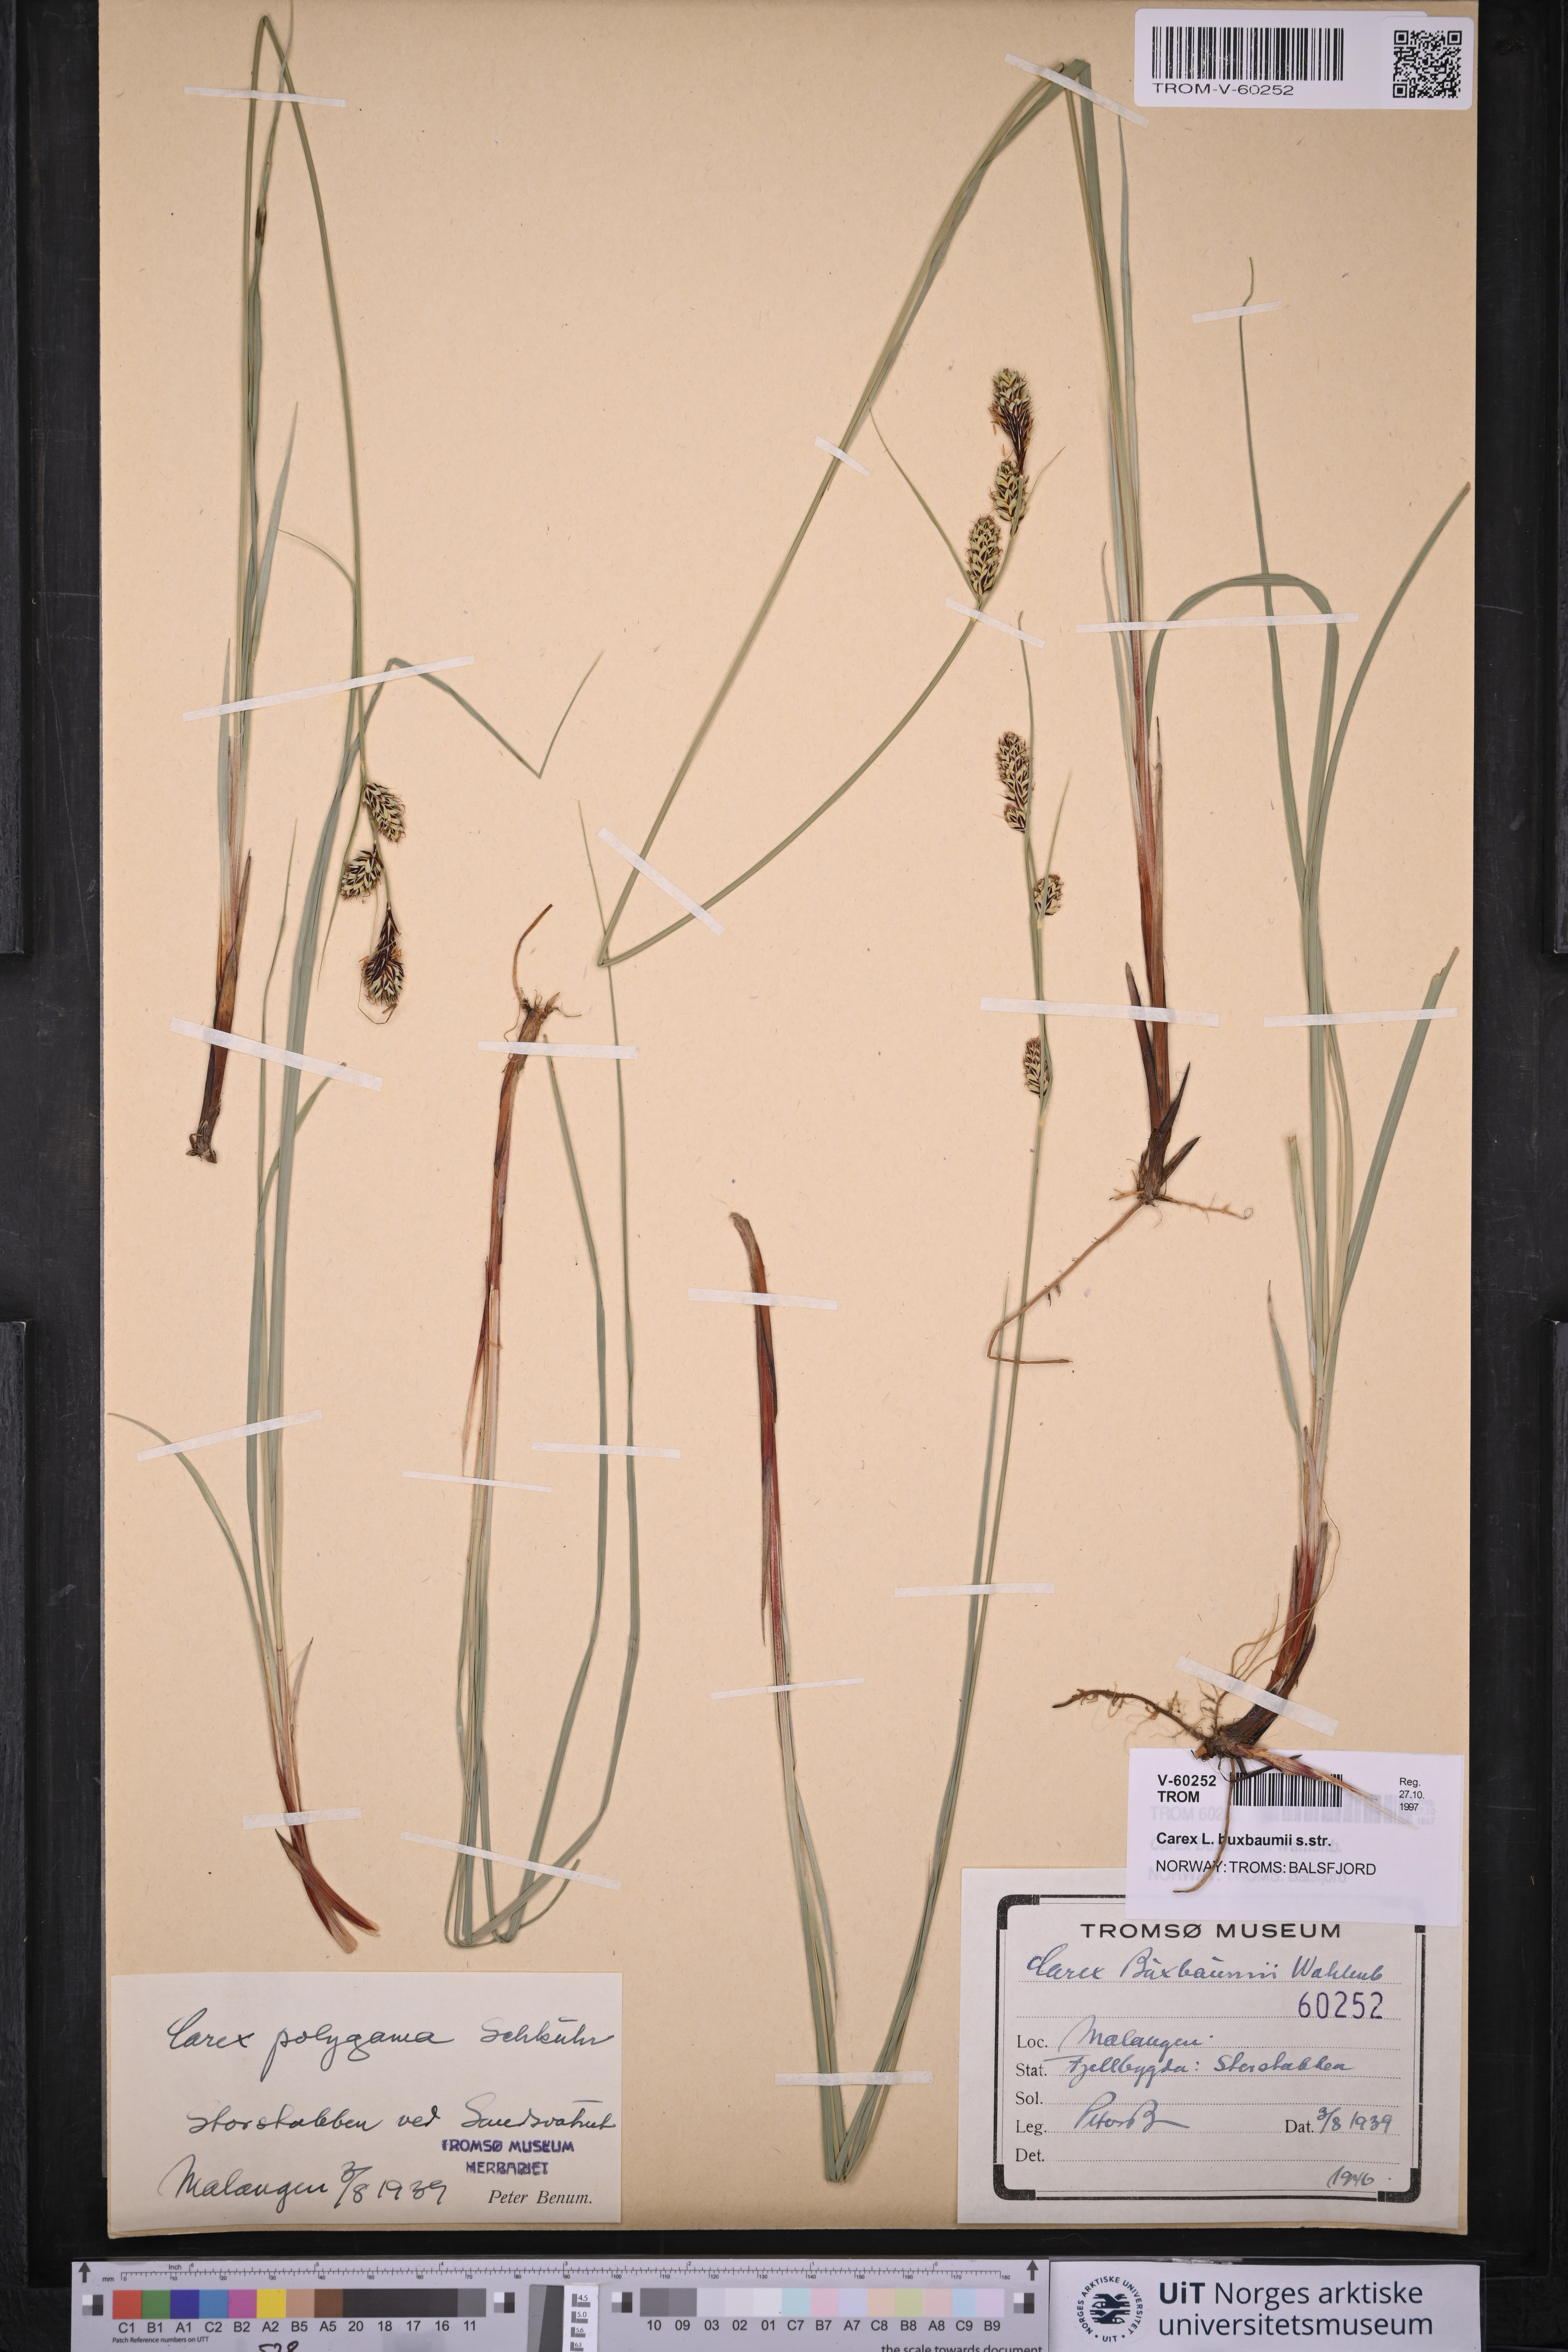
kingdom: Plantae
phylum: Tracheophyta
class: Liliopsida
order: Poales
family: Cyperaceae
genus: Carex
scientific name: Carex buxbaumii
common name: Club sedge
